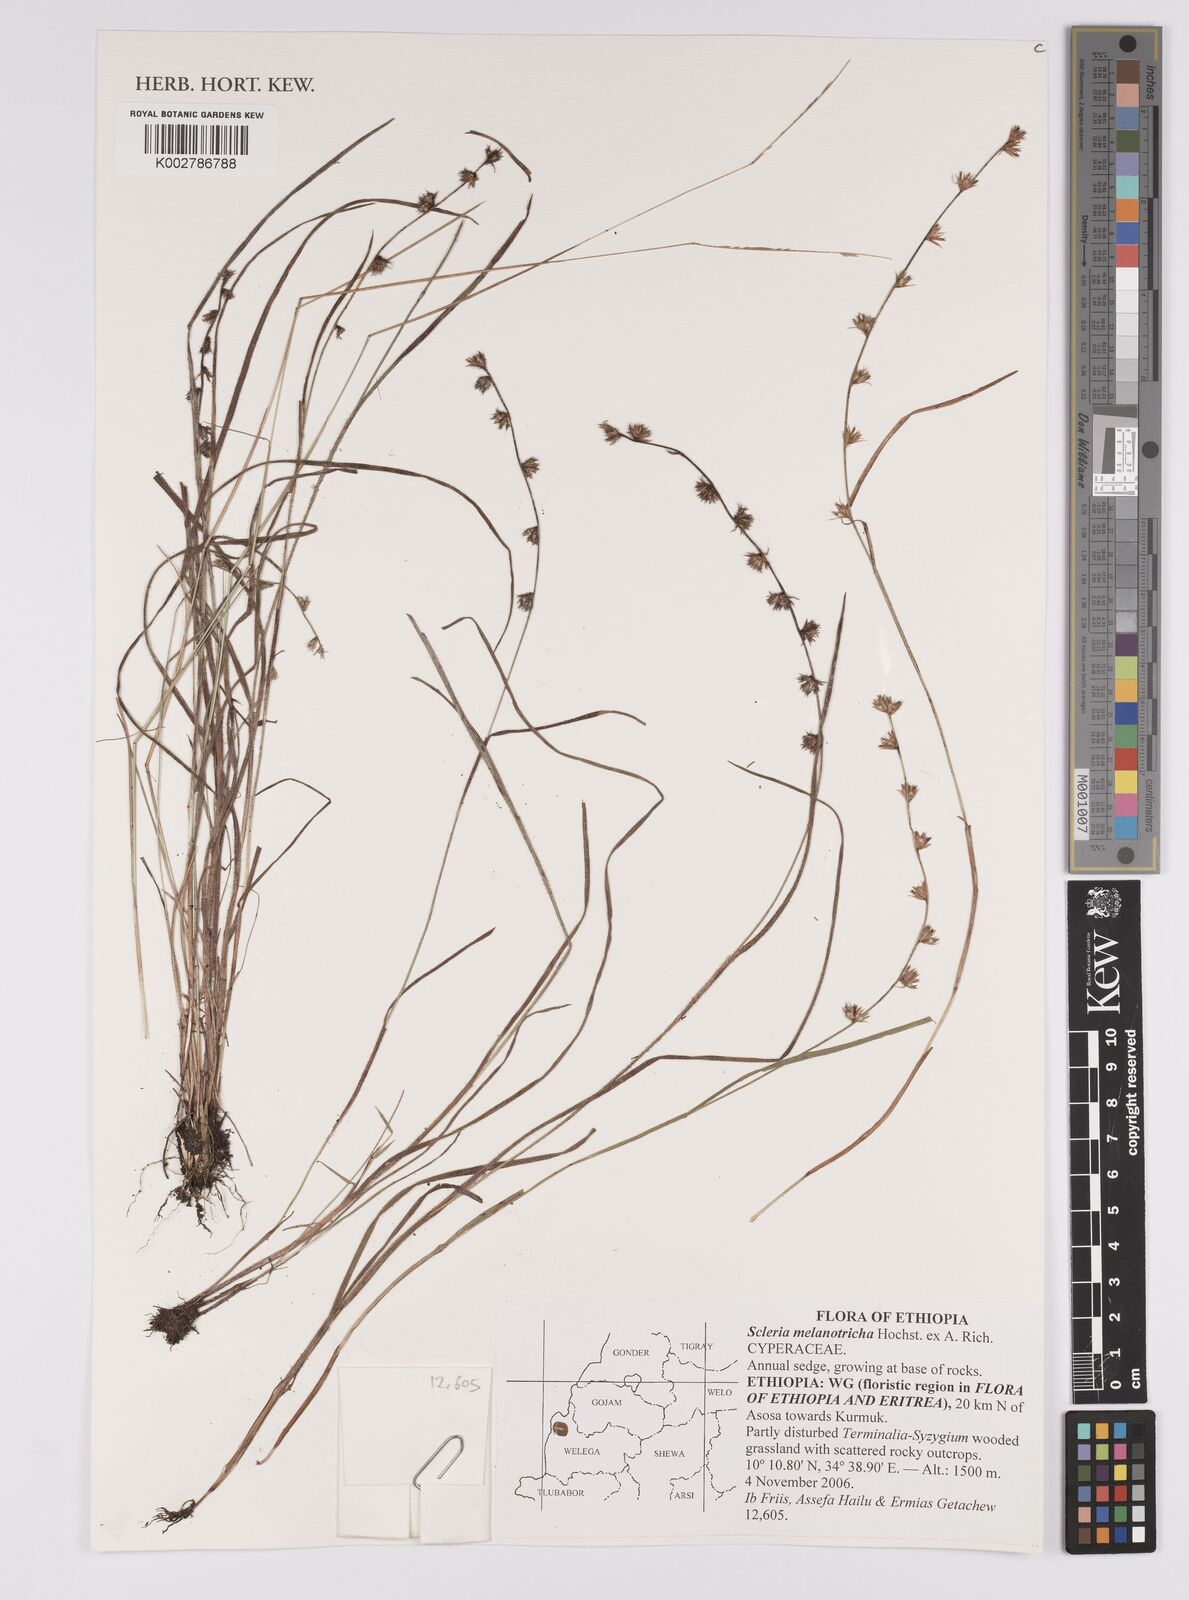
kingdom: Plantae
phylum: Tracheophyta
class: Liliopsida
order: Poales
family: Cyperaceae
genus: Scleria
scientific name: Scleria melanotricha
